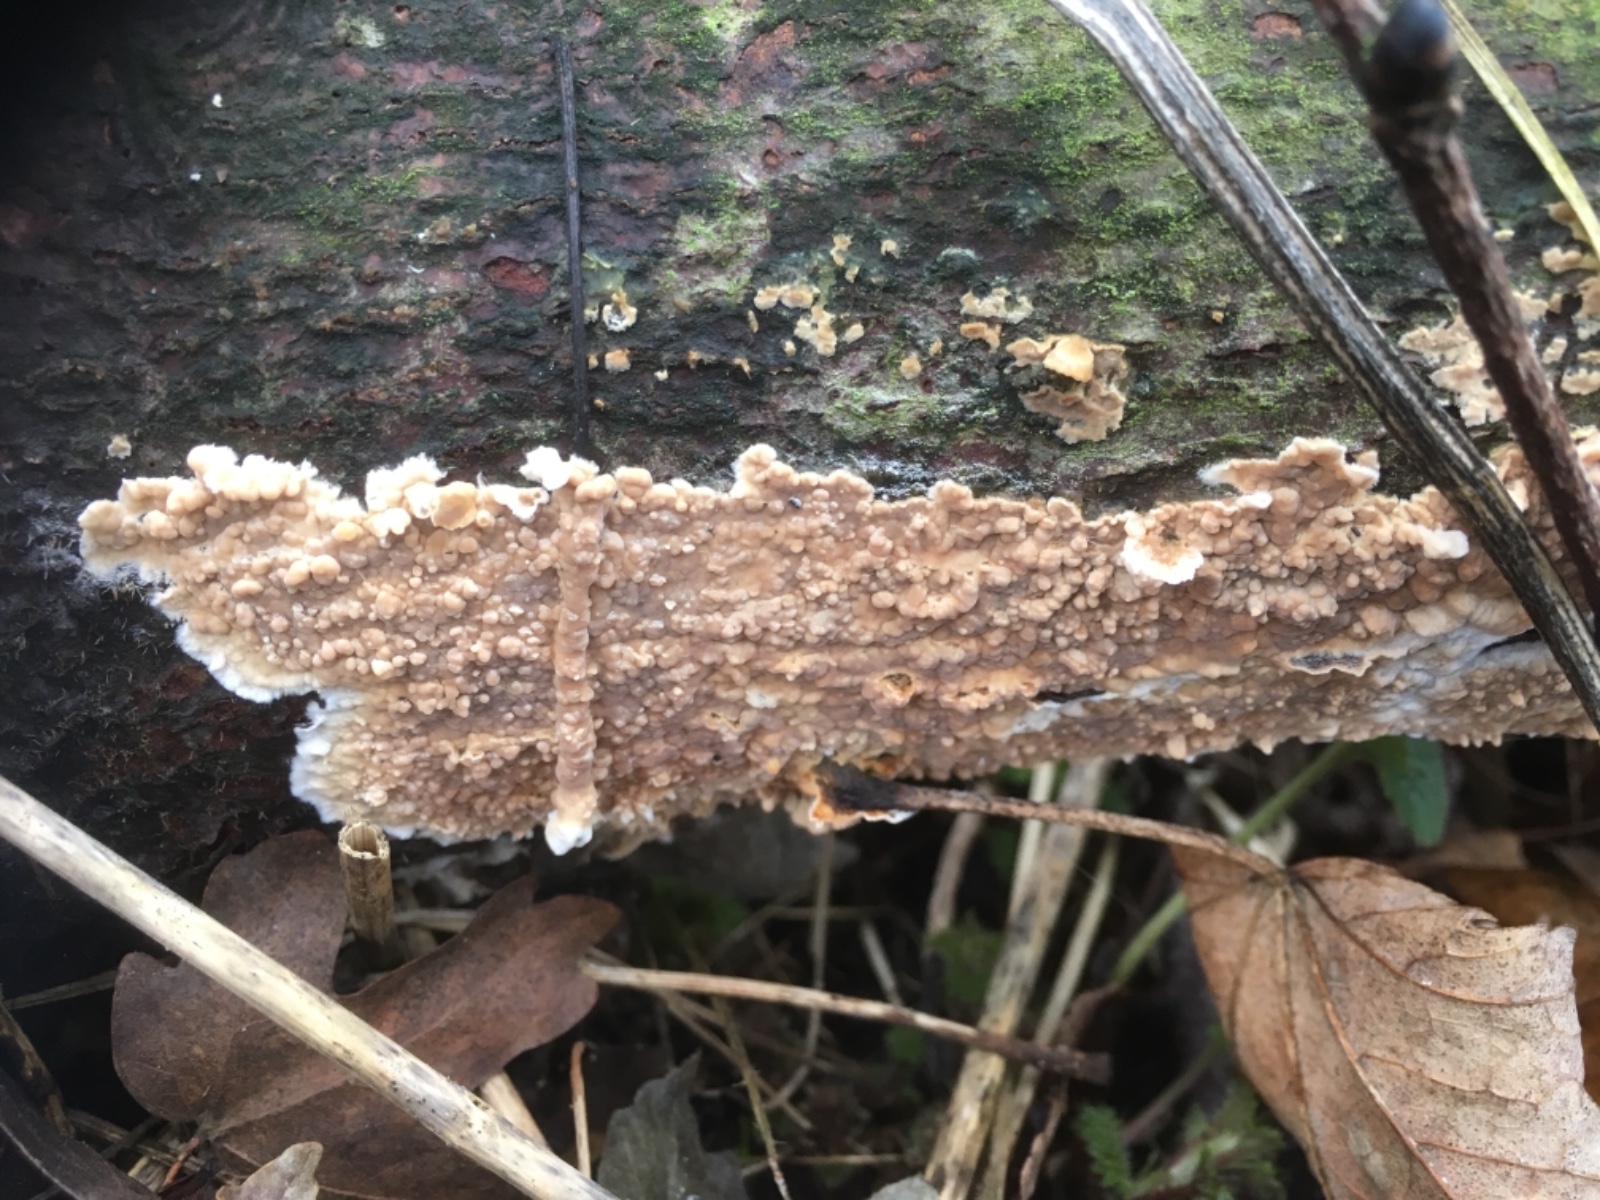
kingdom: Fungi
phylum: Basidiomycota
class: Agaricomycetes
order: Agaricales
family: Physalacriaceae
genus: Cylindrobasidium
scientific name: Cylindrobasidium evolvens
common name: sprækkehinde
